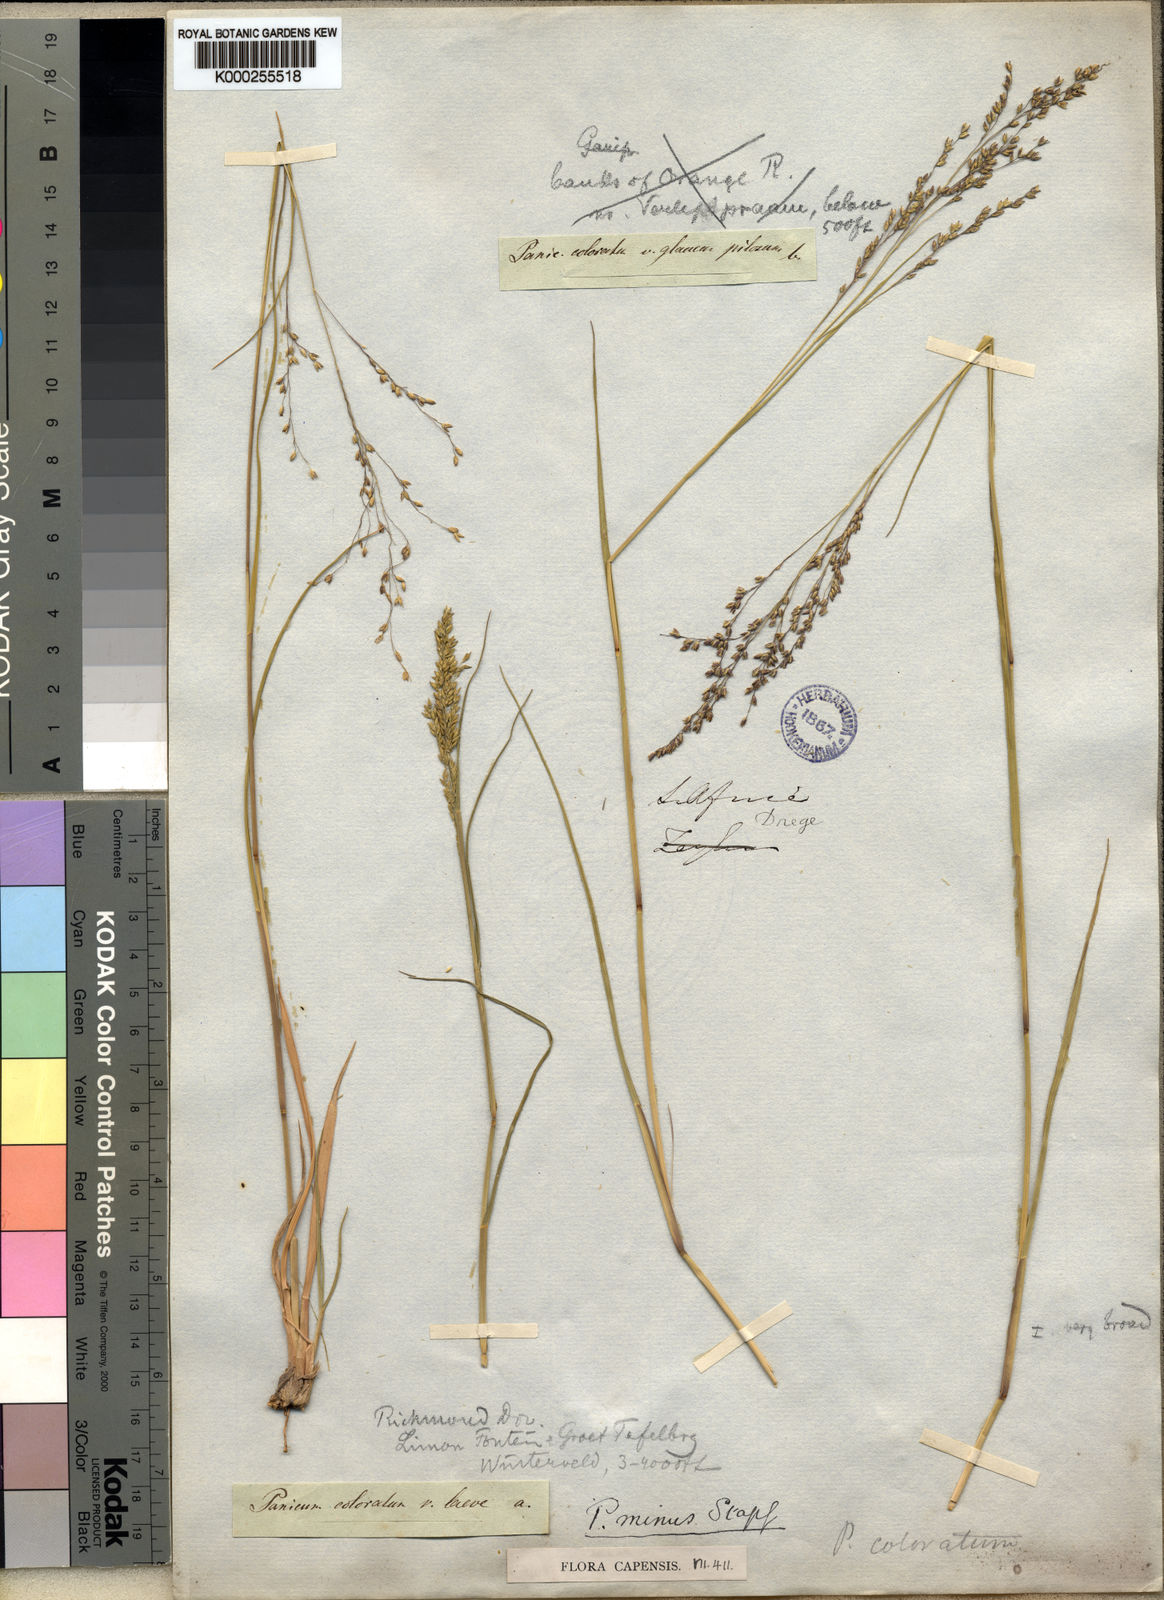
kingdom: Plantae
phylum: Tracheophyta
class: Liliopsida
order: Poales
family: Poaceae
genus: Panicum
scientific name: Panicum stapfianum
